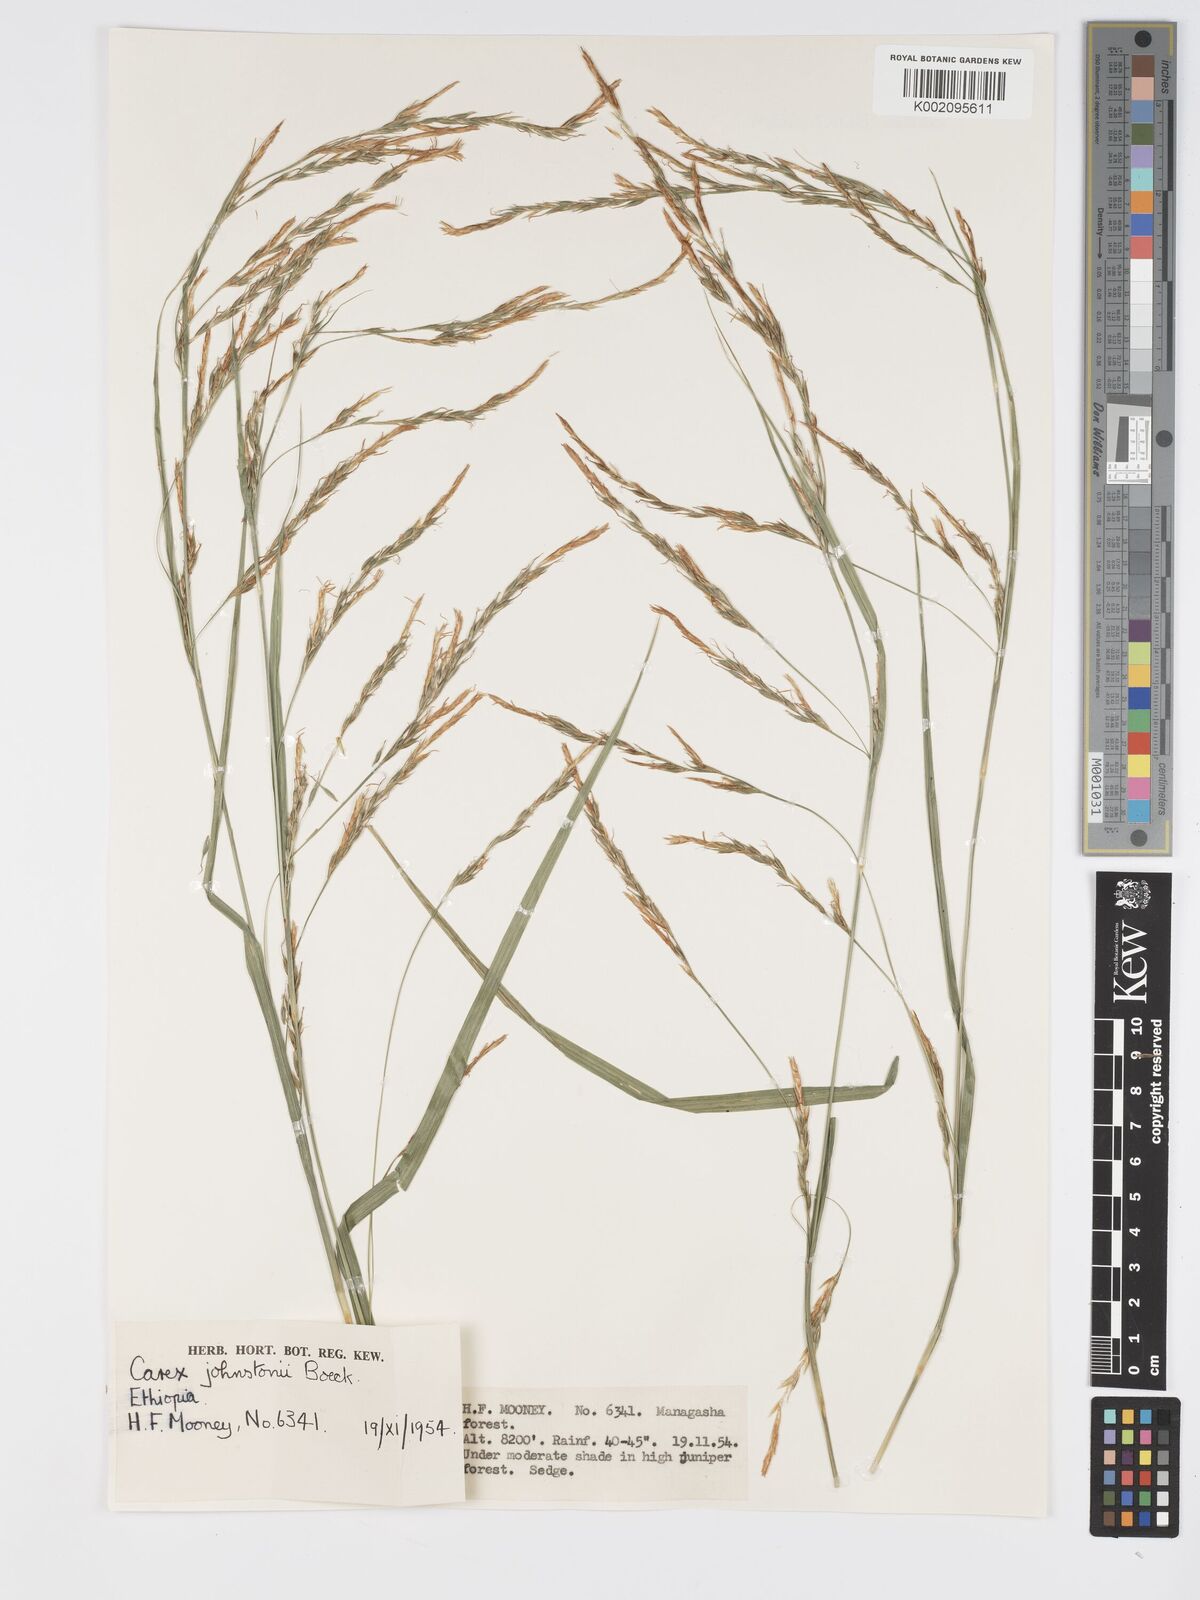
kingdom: Plantae
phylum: Tracheophyta
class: Liliopsida
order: Poales
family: Cyperaceae
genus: Carex
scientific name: Carex johnstonii
